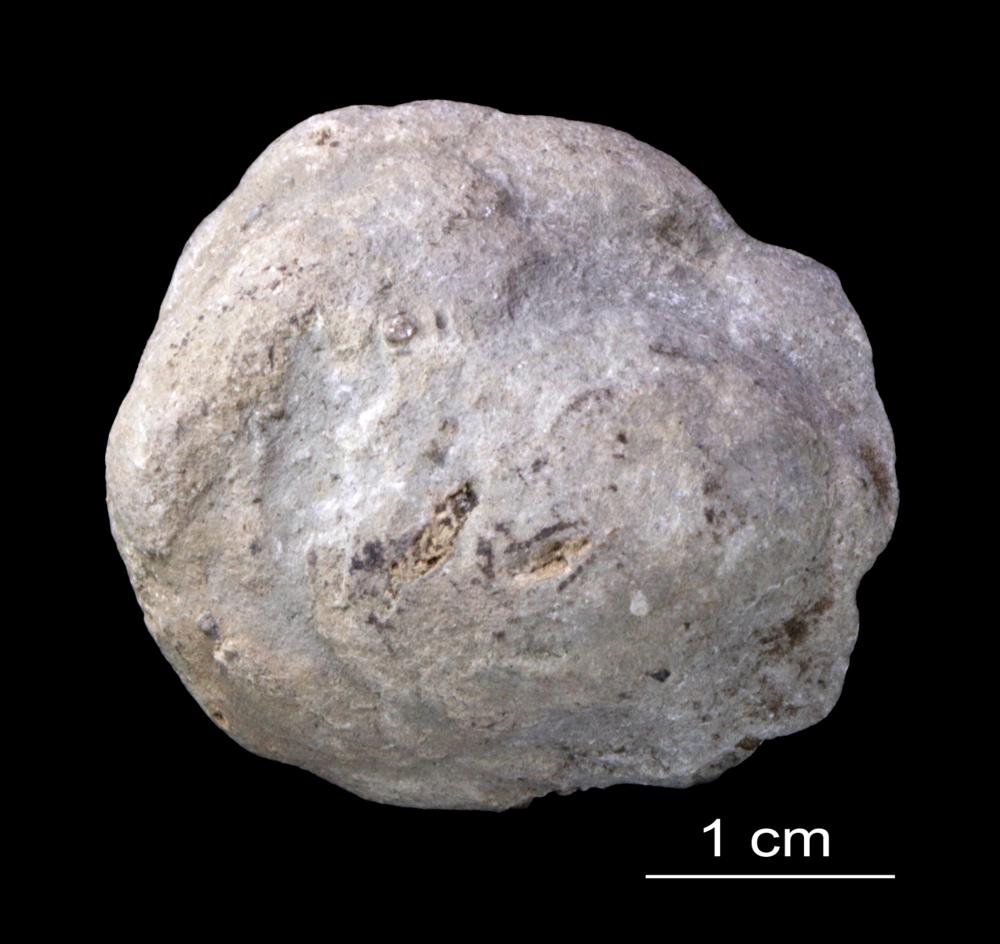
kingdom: Animalia
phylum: Brachiopoda
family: Chonetidae
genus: Chonetes
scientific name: Chonetes
